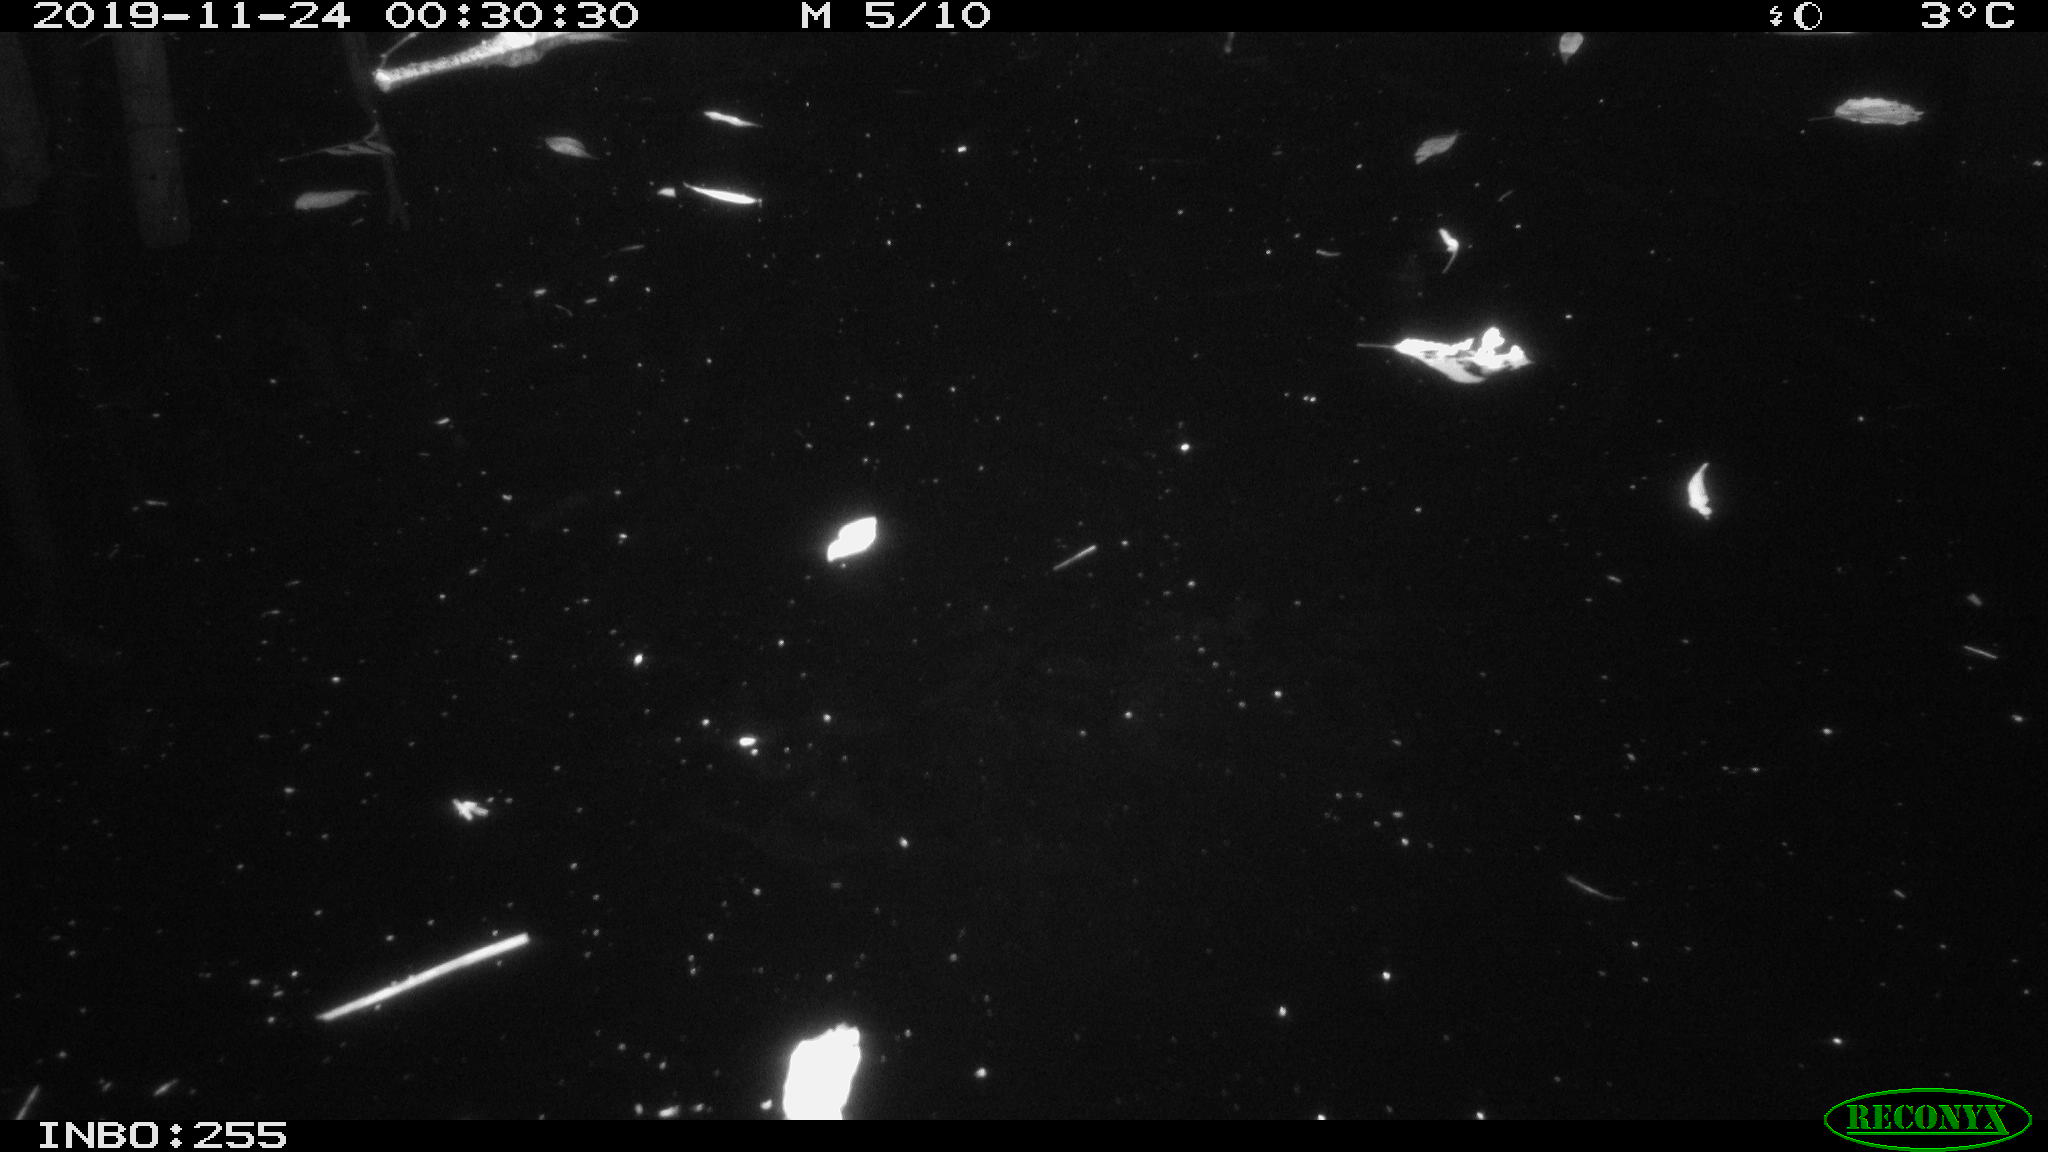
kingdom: Animalia
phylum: Chordata
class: Mammalia
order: Rodentia
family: Cricetidae
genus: Ondatra
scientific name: Ondatra zibethicus
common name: Muskrat
